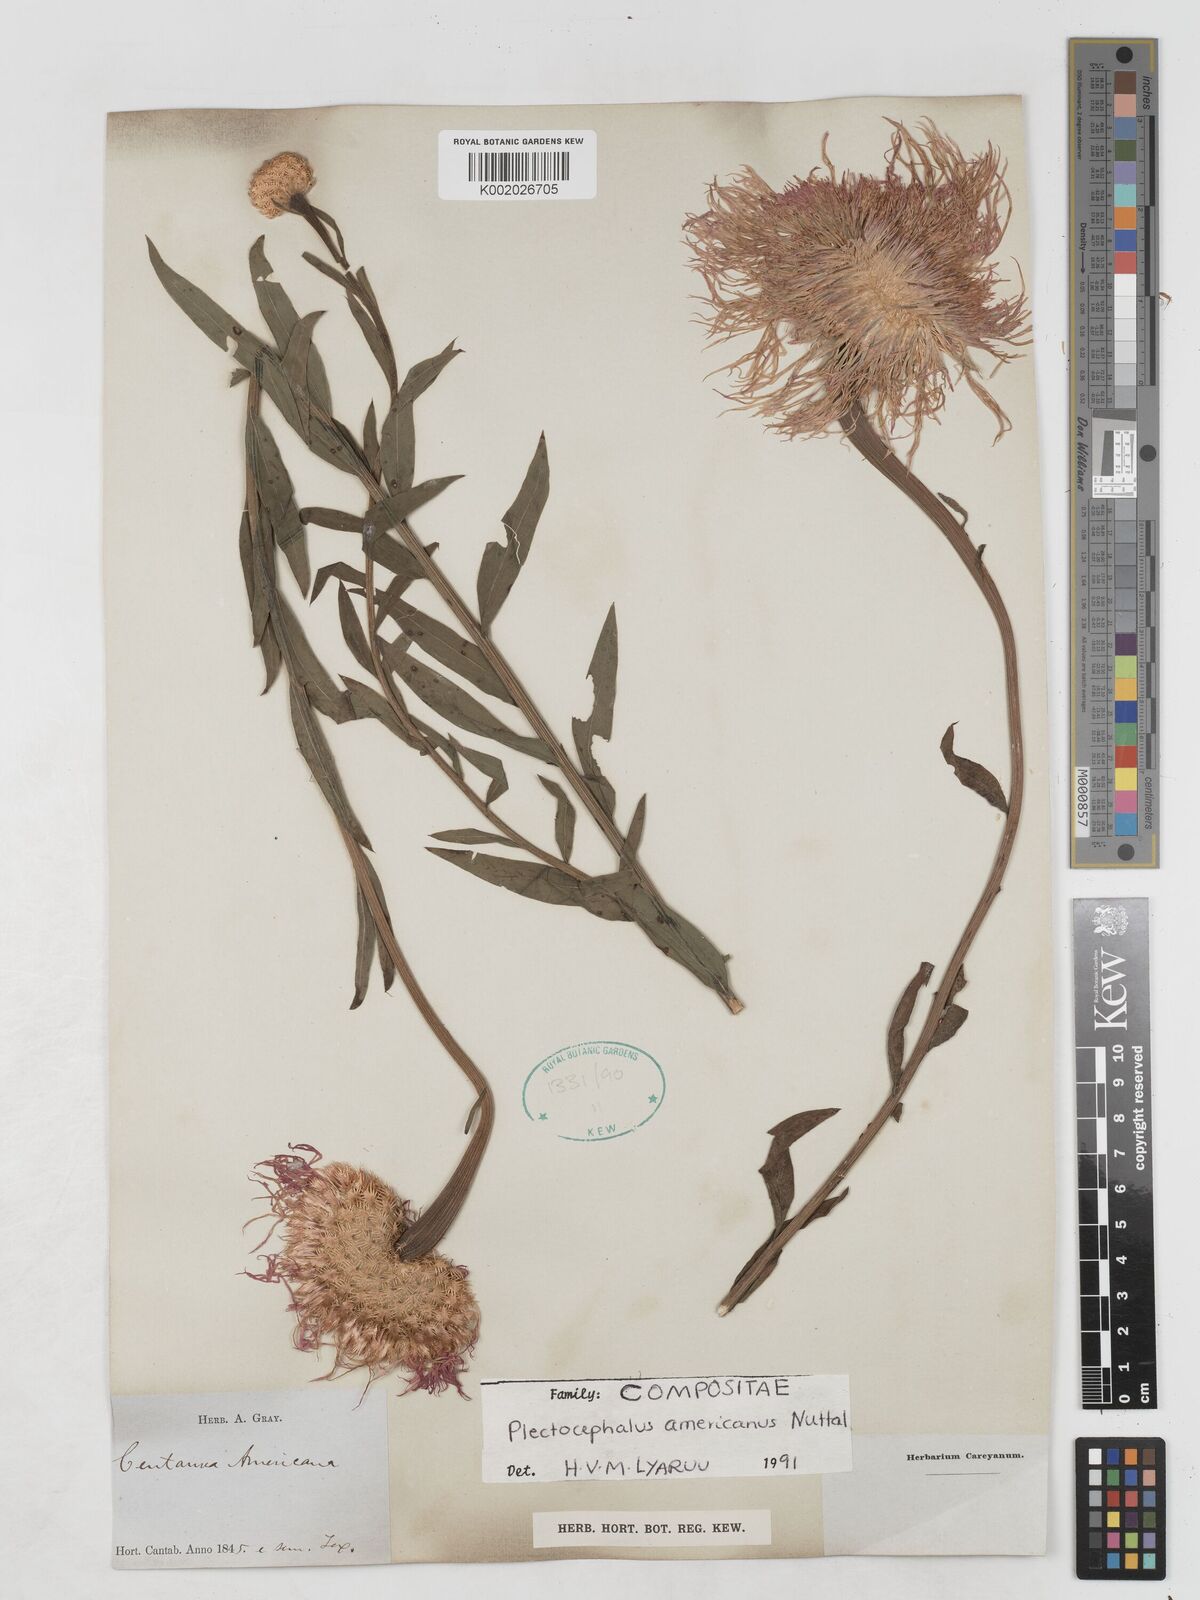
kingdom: Plantae
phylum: Tracheophyta
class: Magnoliopsida
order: Asterales
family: Asteraceae
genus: Plectocephalus
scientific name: Plectocephalus americanus
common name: American basket-flower
